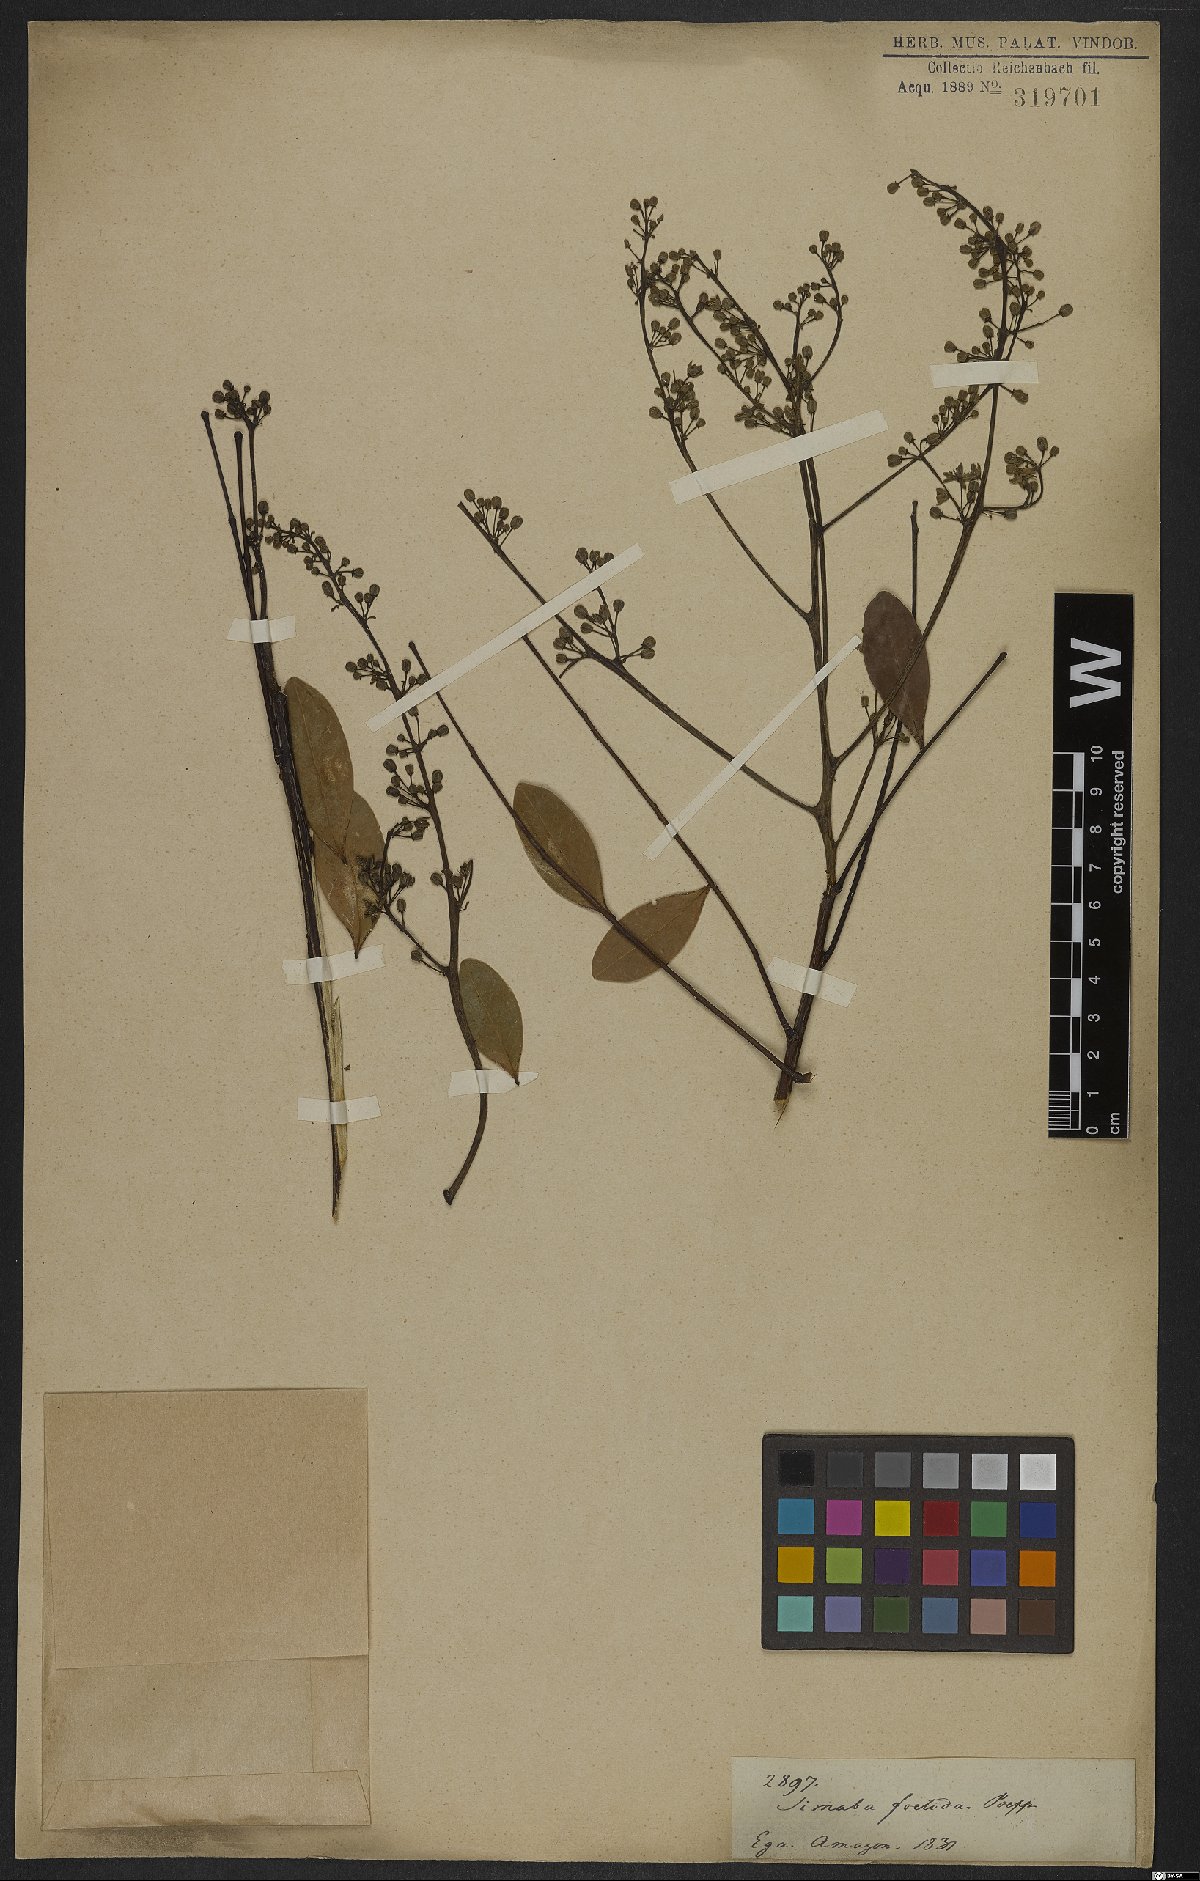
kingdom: Plantae
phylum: Tracheophyta
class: Magnoliopsida
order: Sapindales
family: Simaroubaceae
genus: Simaba
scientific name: Simaba guianensis
